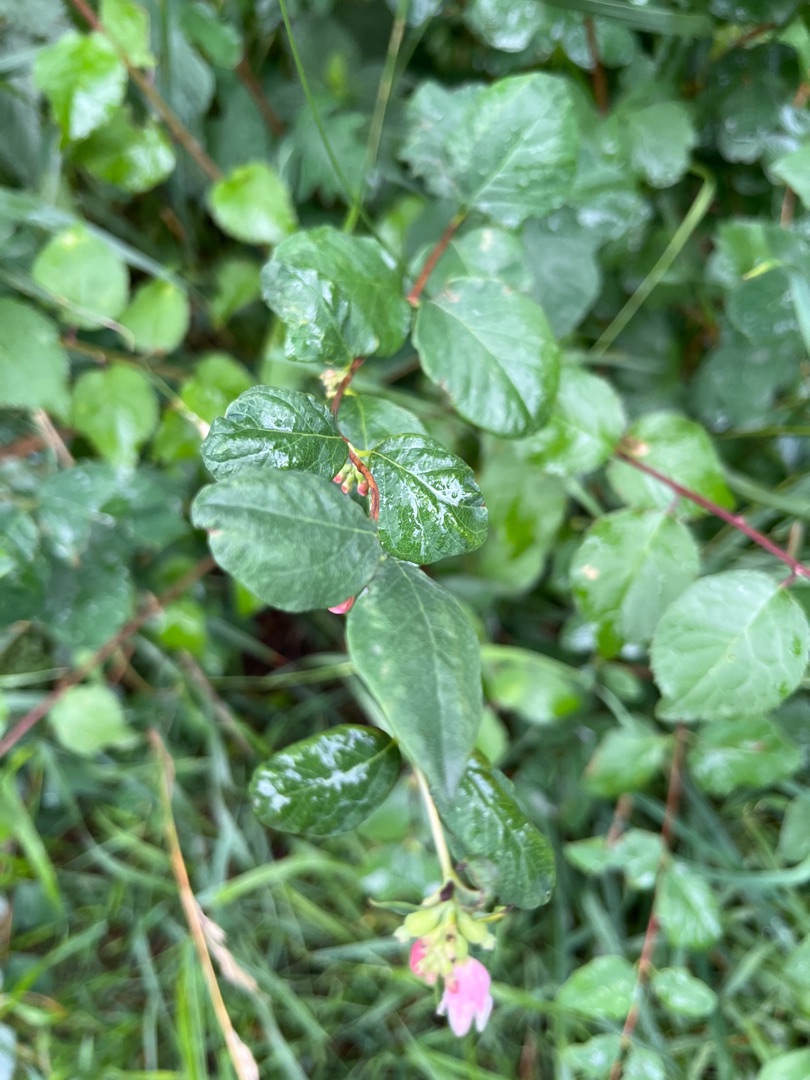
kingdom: Plantae
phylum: Tracheophyta
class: Magnoliopsida
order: Dipsacales
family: Caprifoliaceae
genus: Symphoricarpos
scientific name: Symphoricarpos chenaultii
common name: Rød snebær
